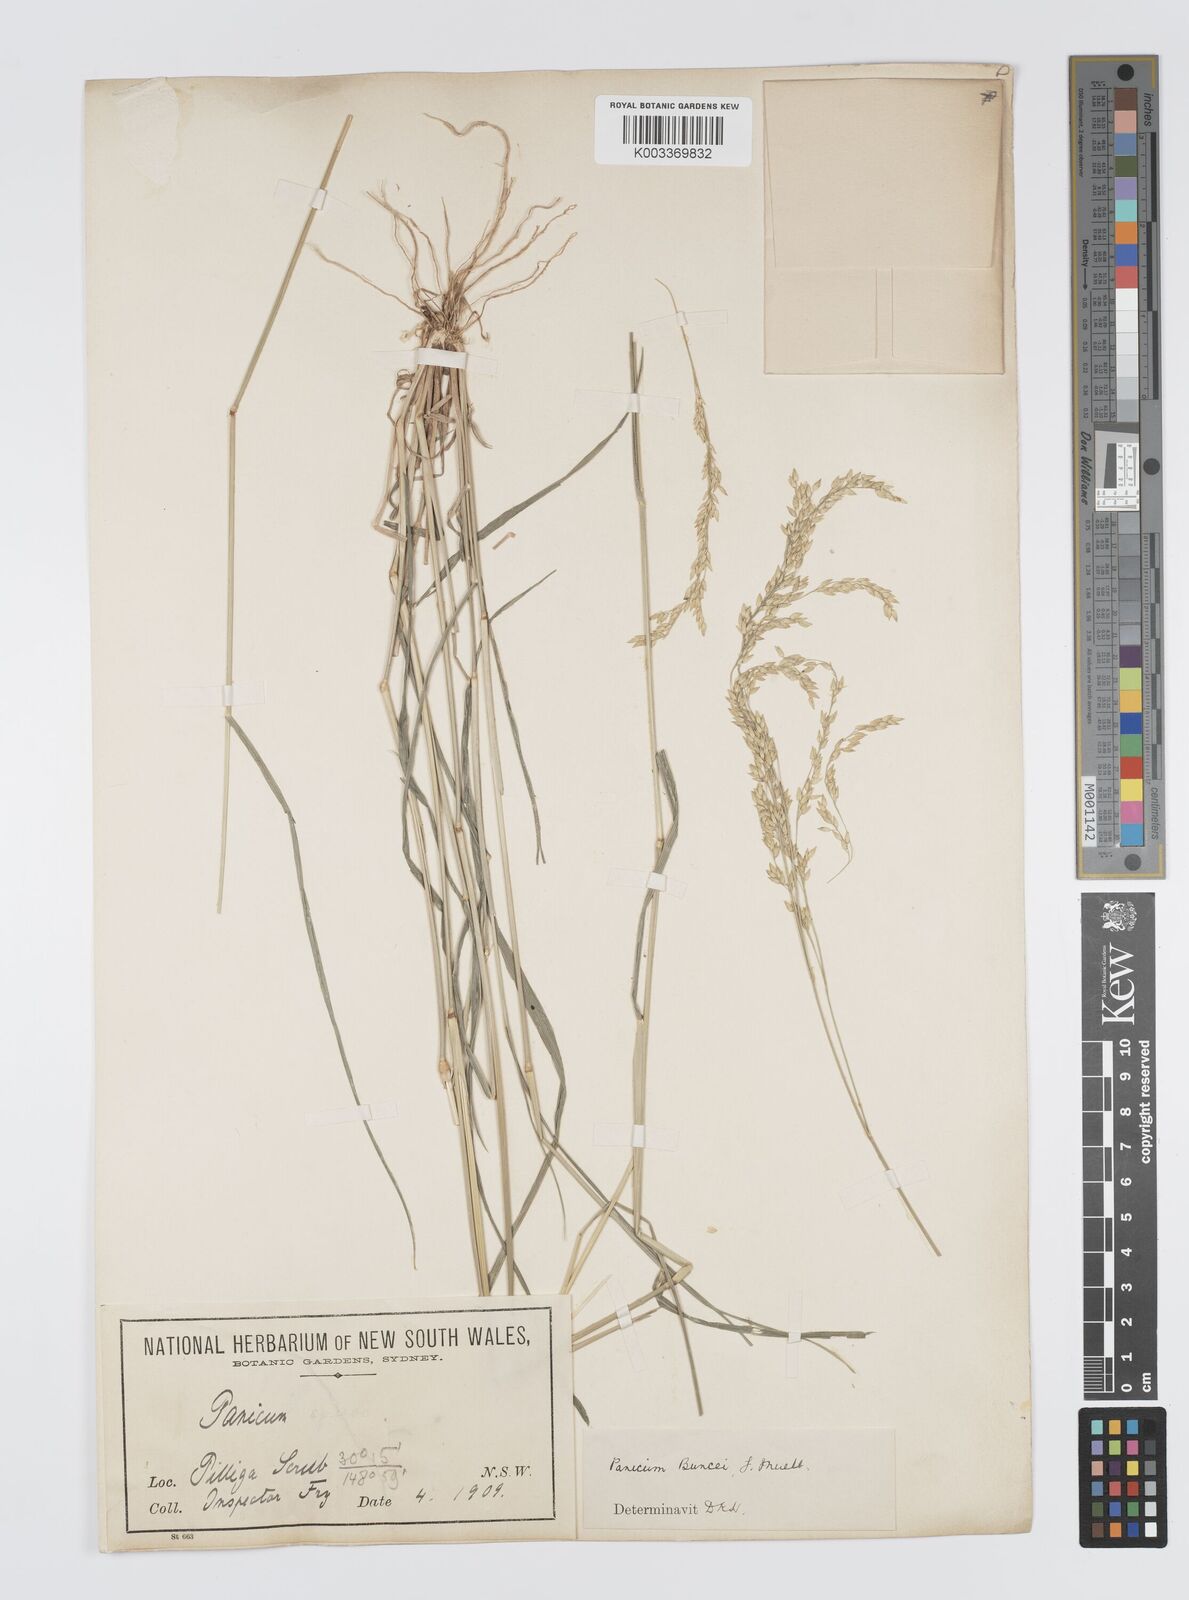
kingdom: Plantae
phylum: Tracheophyta
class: Liliopsida
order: Poales
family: Poaceae
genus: Panicum
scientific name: Panicum buncei
